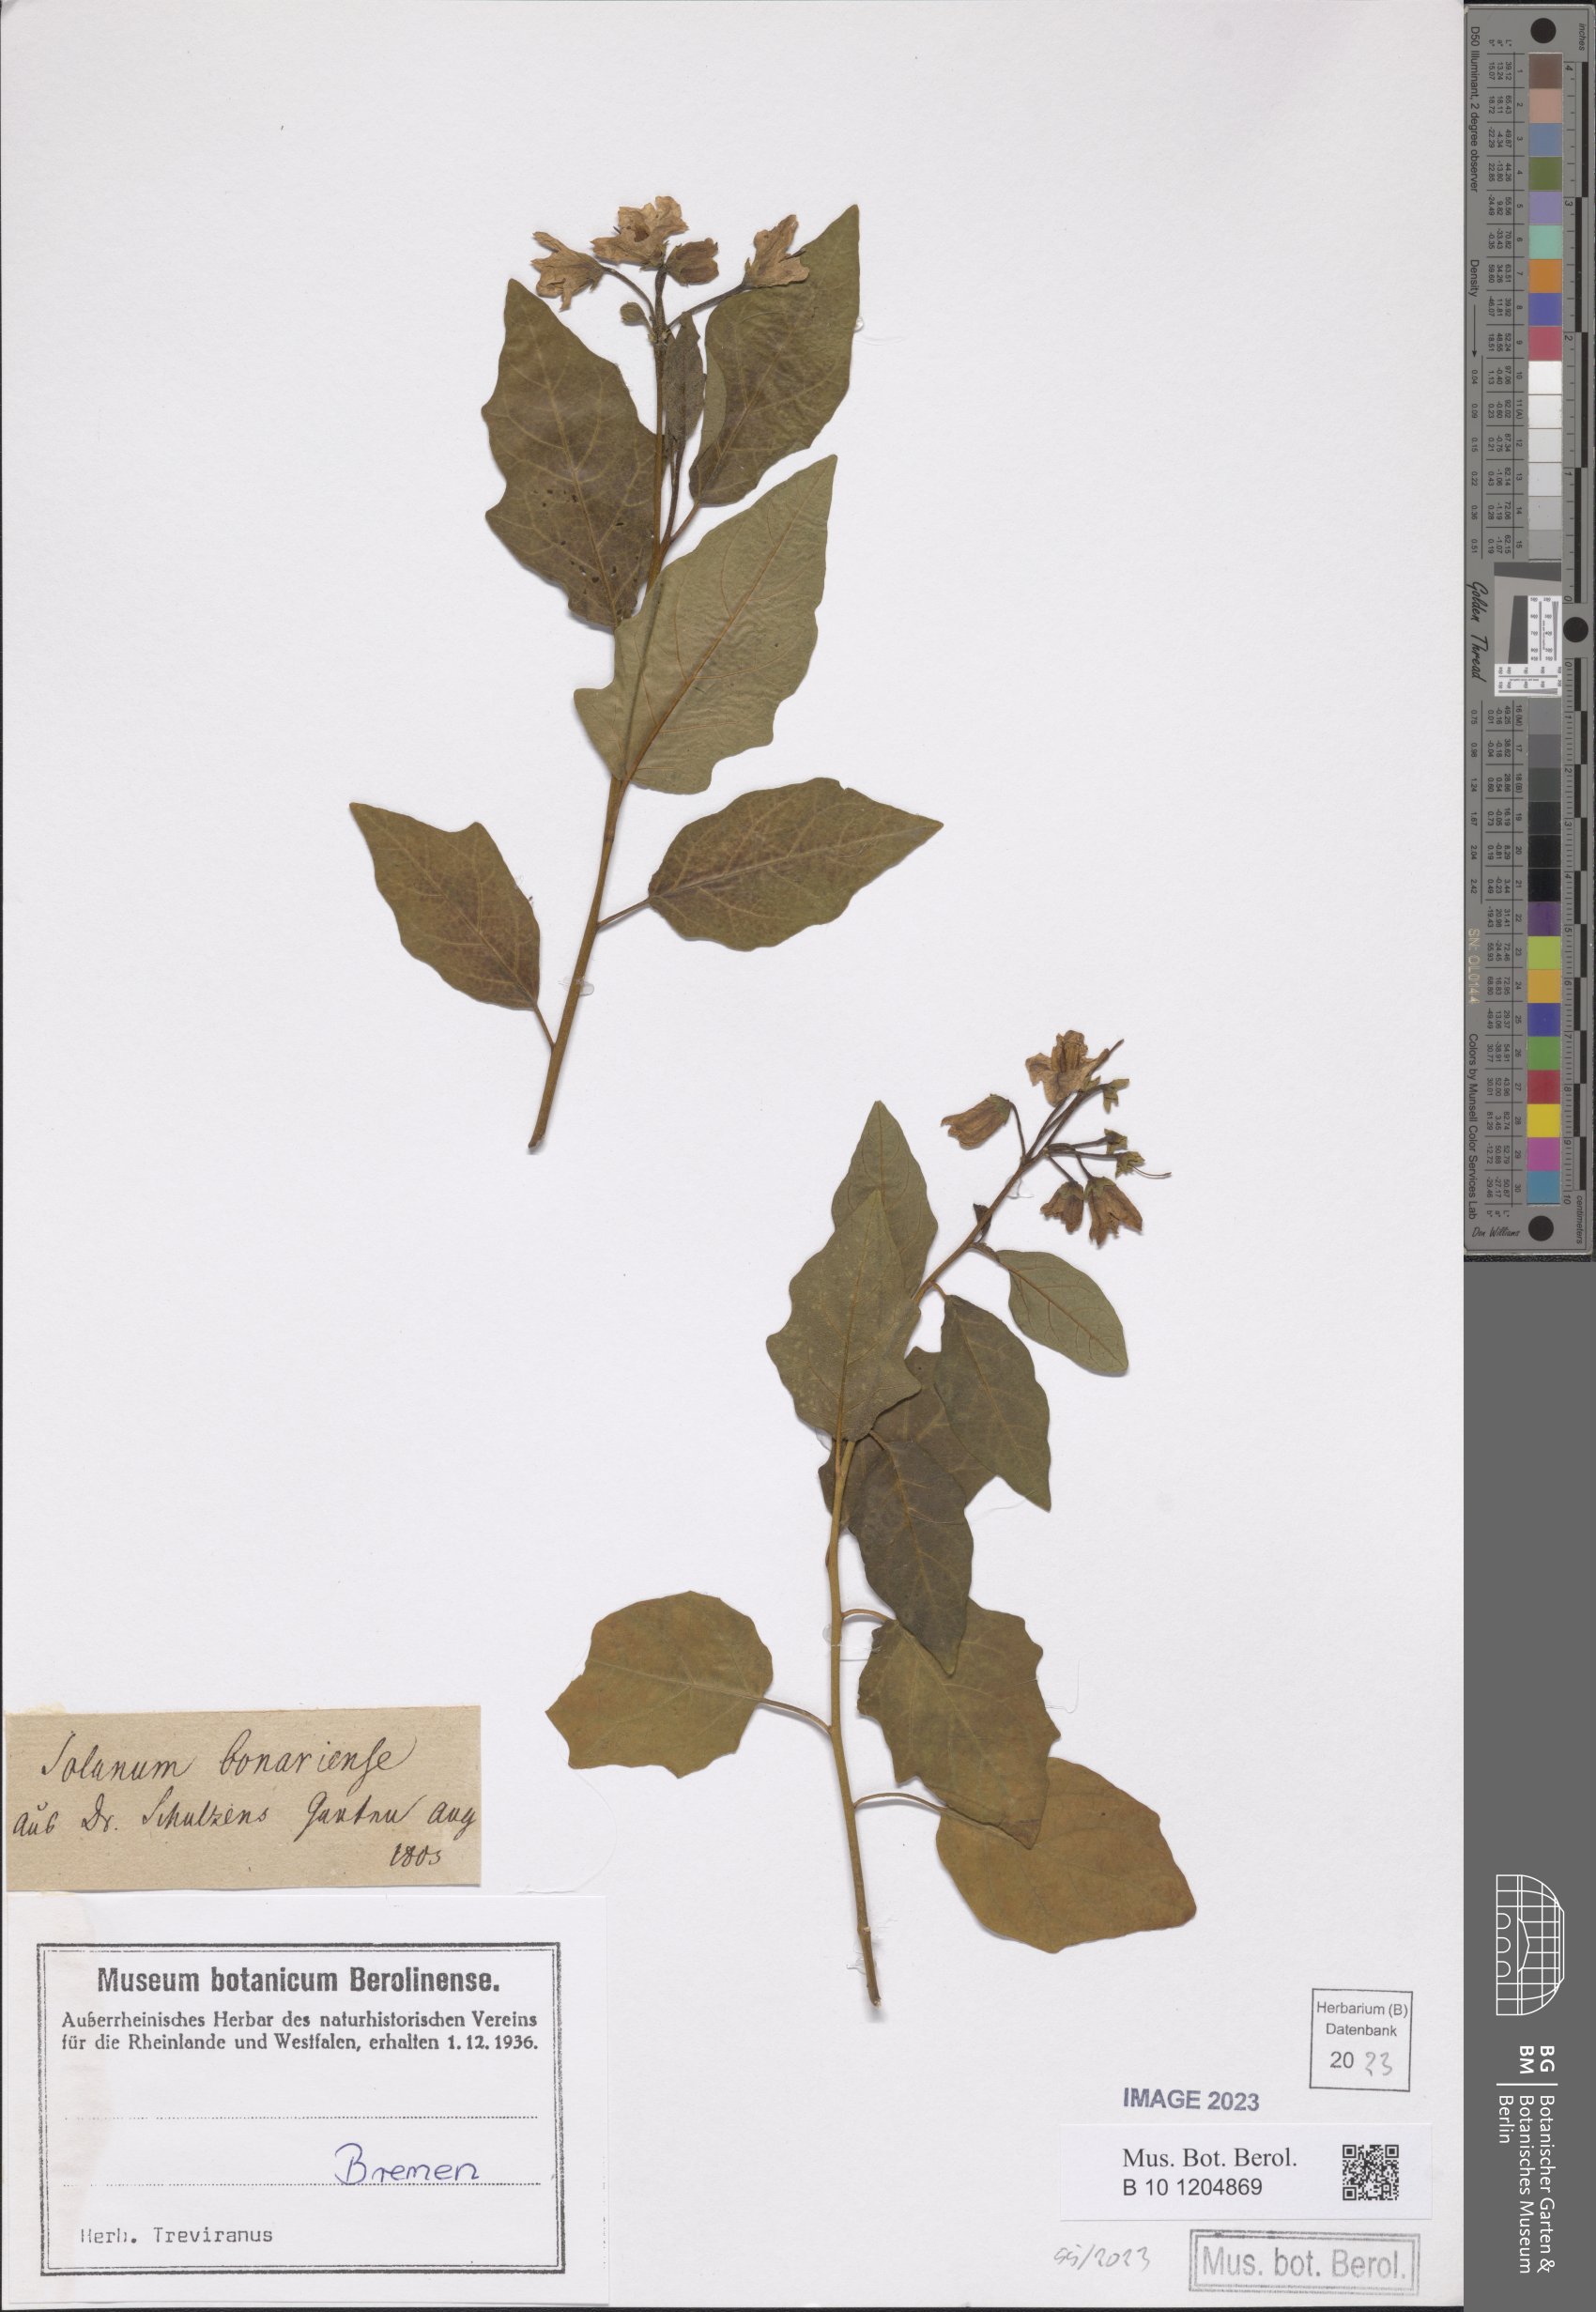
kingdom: Plantae
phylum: Tracheophyta
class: Magnoliopsida
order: Solanales
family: Solanaceae
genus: Solanum
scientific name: Solanum bonariense
